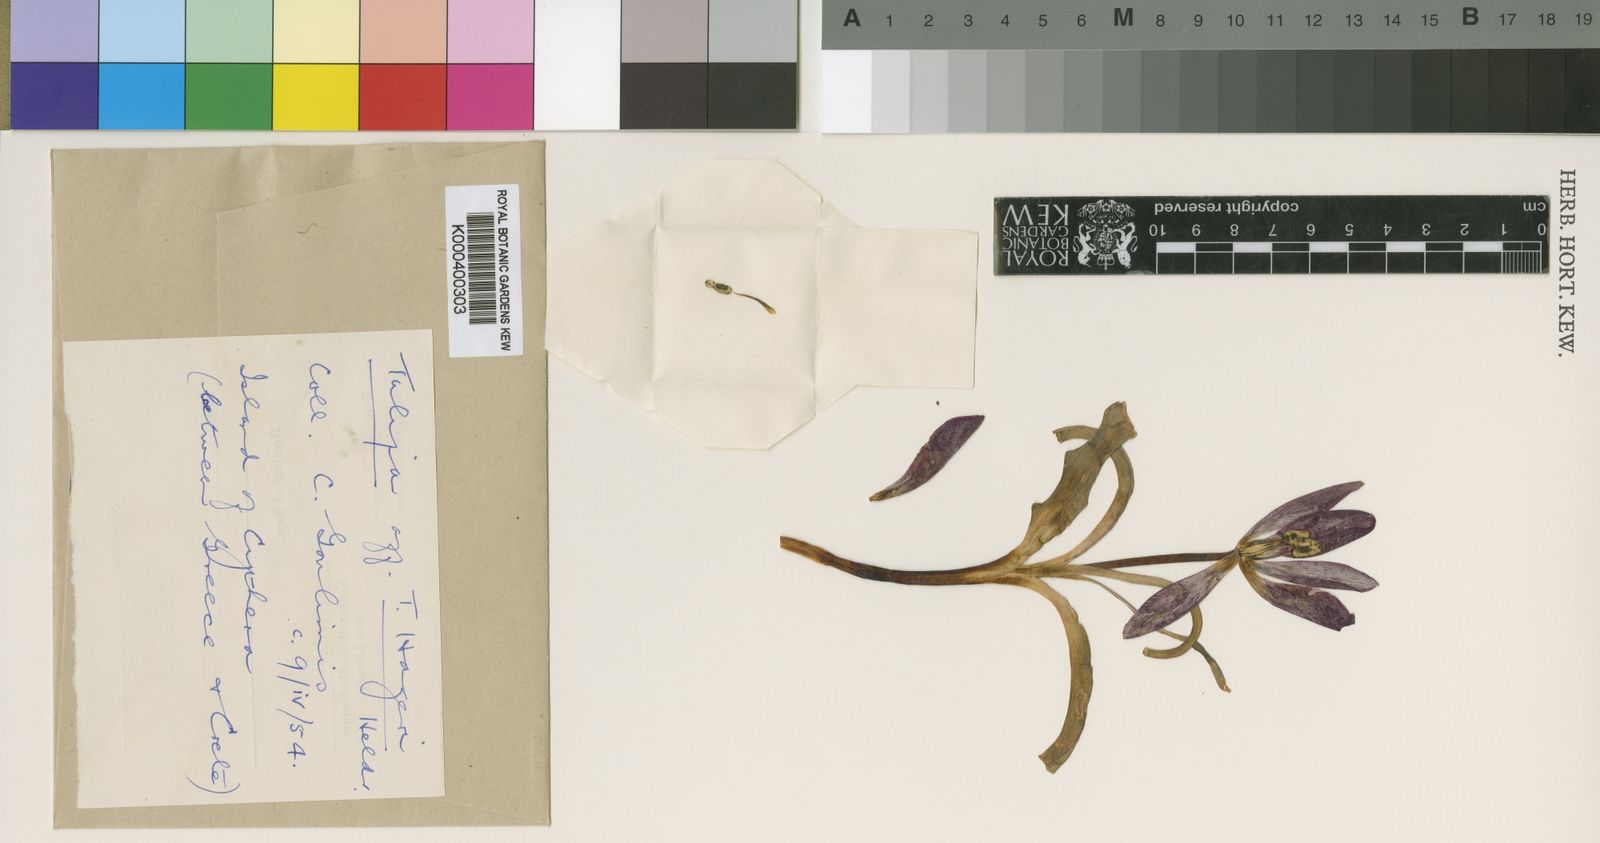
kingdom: Plantae
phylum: Tracheophyta
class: Liliopsida
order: Liliales
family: Liliaceae
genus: Tulipa
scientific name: Tulipa orphanidea
